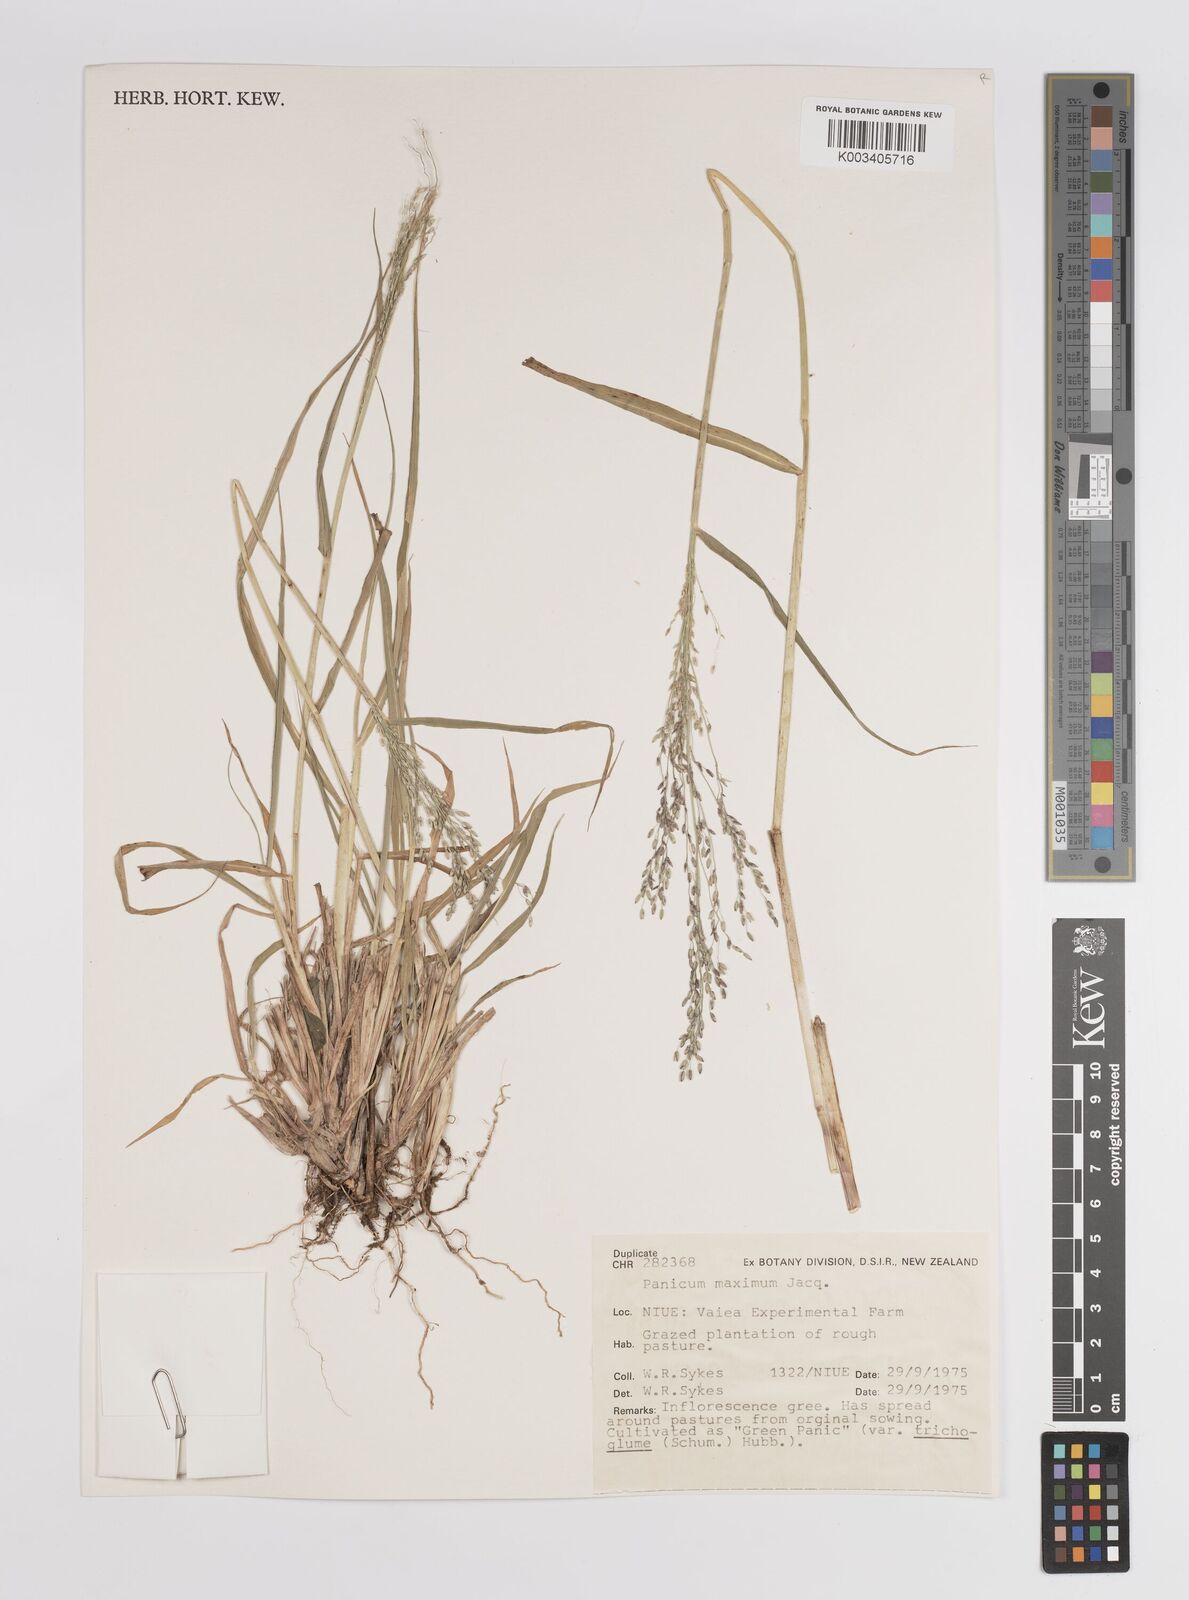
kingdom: Plantae
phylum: Tracheophyta
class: Liliopsida
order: Poales
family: Poaceae
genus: Megathyrsus
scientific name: Megathyrsus maximus
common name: Guineagrass
